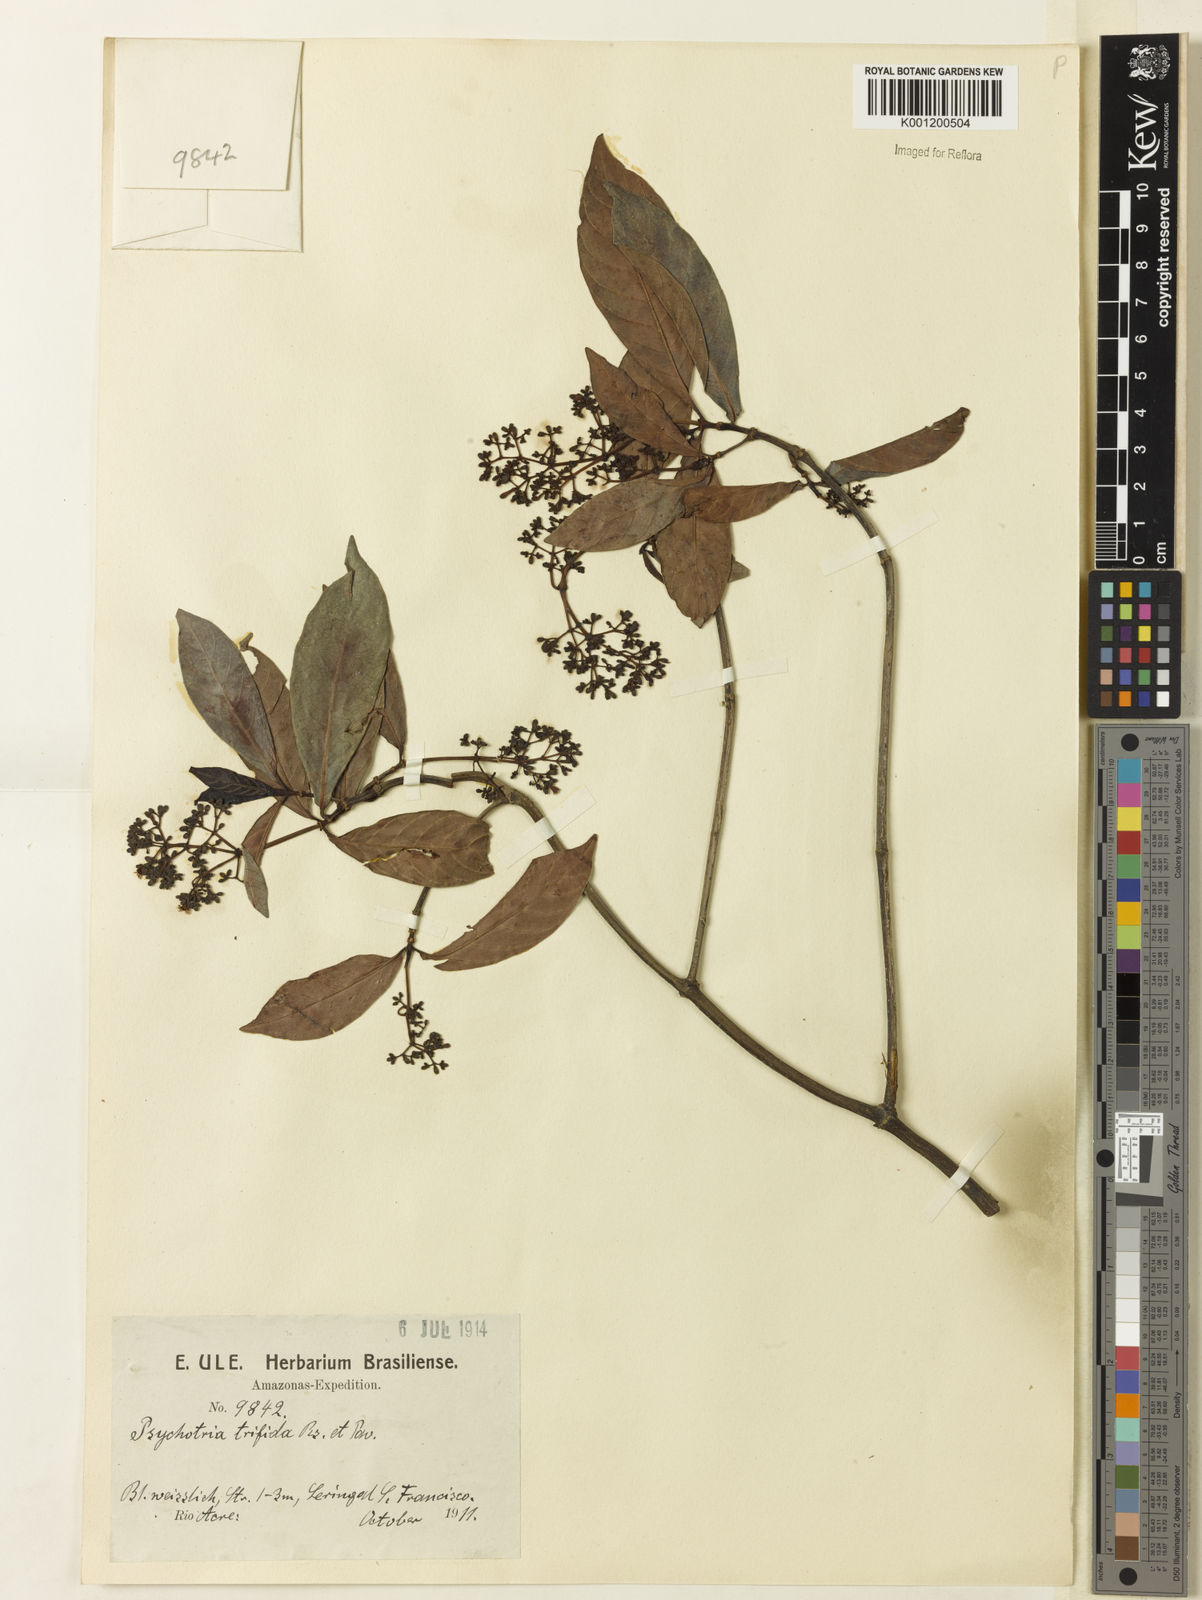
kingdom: Plantae
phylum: Tracheophyta
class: Magnoliopsida
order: Gentianales
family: Rubiaceae
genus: Palicourea
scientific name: Palicourea virgata
